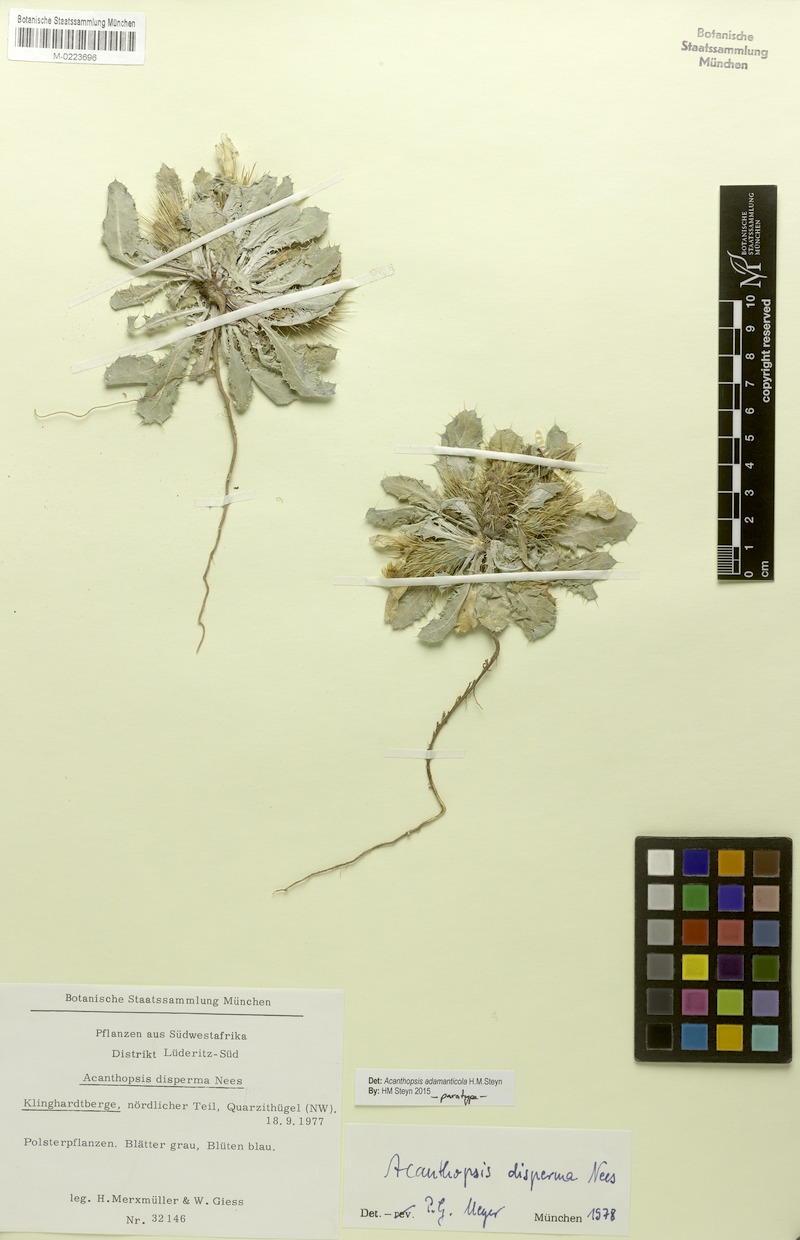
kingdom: Plantae
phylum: Tracheophyta
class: Magnoliopsida
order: Lamiales
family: Acanthaceae
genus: Acanthopsis
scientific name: Acanthopsis adamanticola
